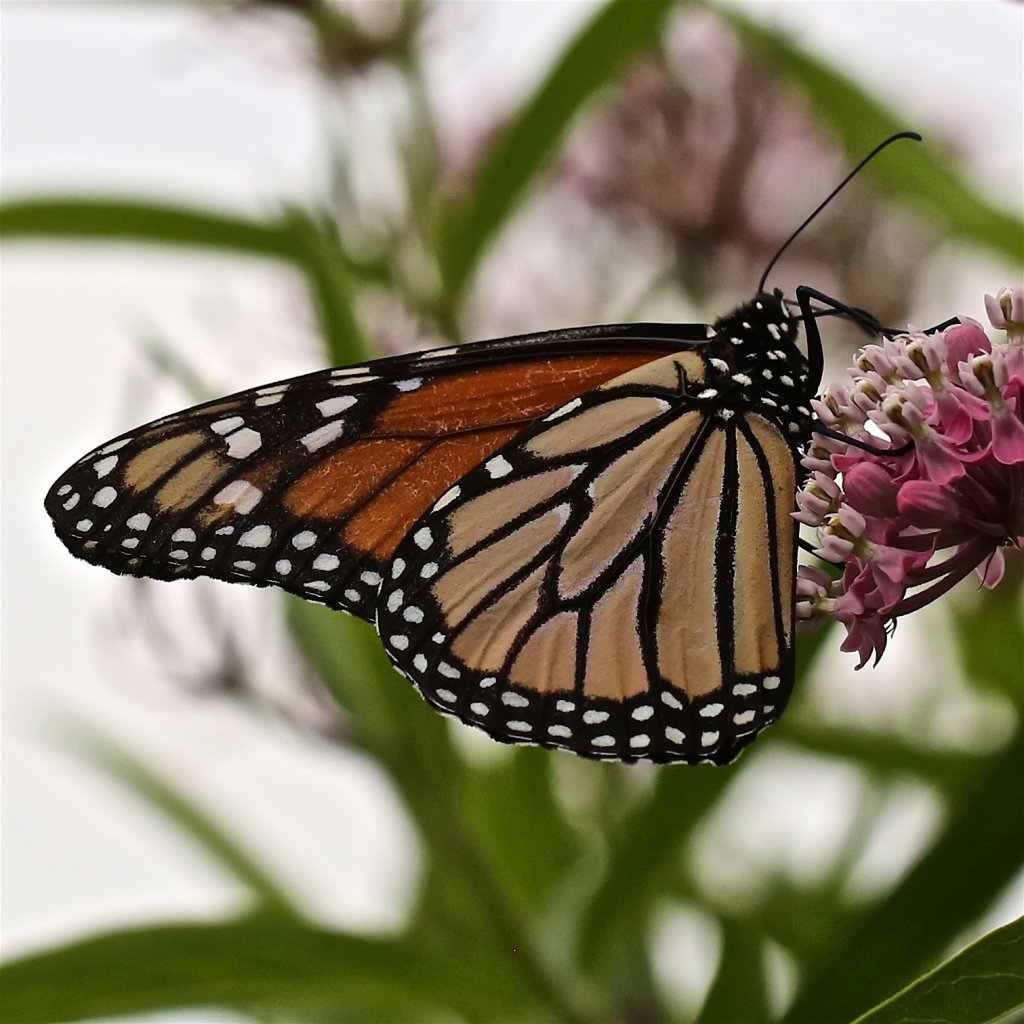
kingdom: Animalia
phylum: Arthropoda
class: Insecta
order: Lepidoptera
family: Nymphalidae
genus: Danaus
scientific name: Danaus plexippus
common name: Monarch
